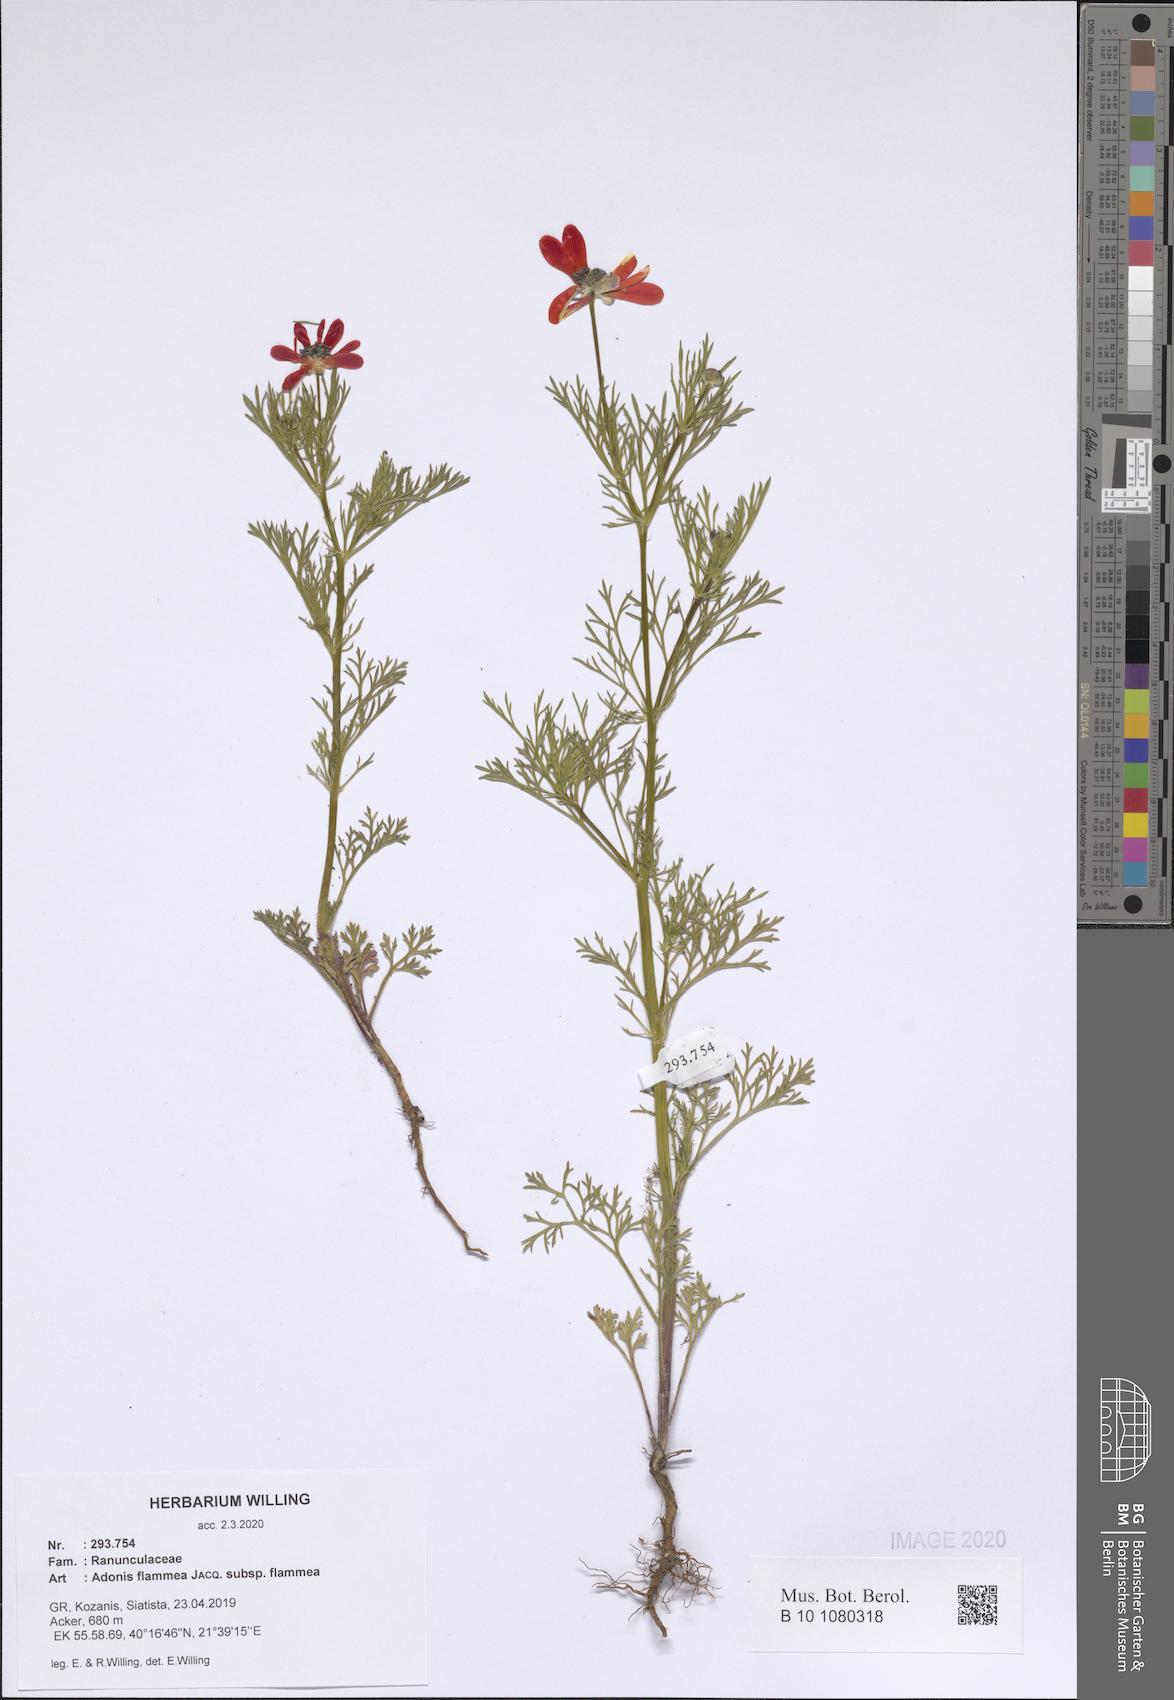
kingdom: Plantae
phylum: Tracheophyta
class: Magnoliopsida
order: Ranunculales
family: Ranunculaceae
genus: Adonis
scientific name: Adonis flammea
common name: Large pheasant's-eye
